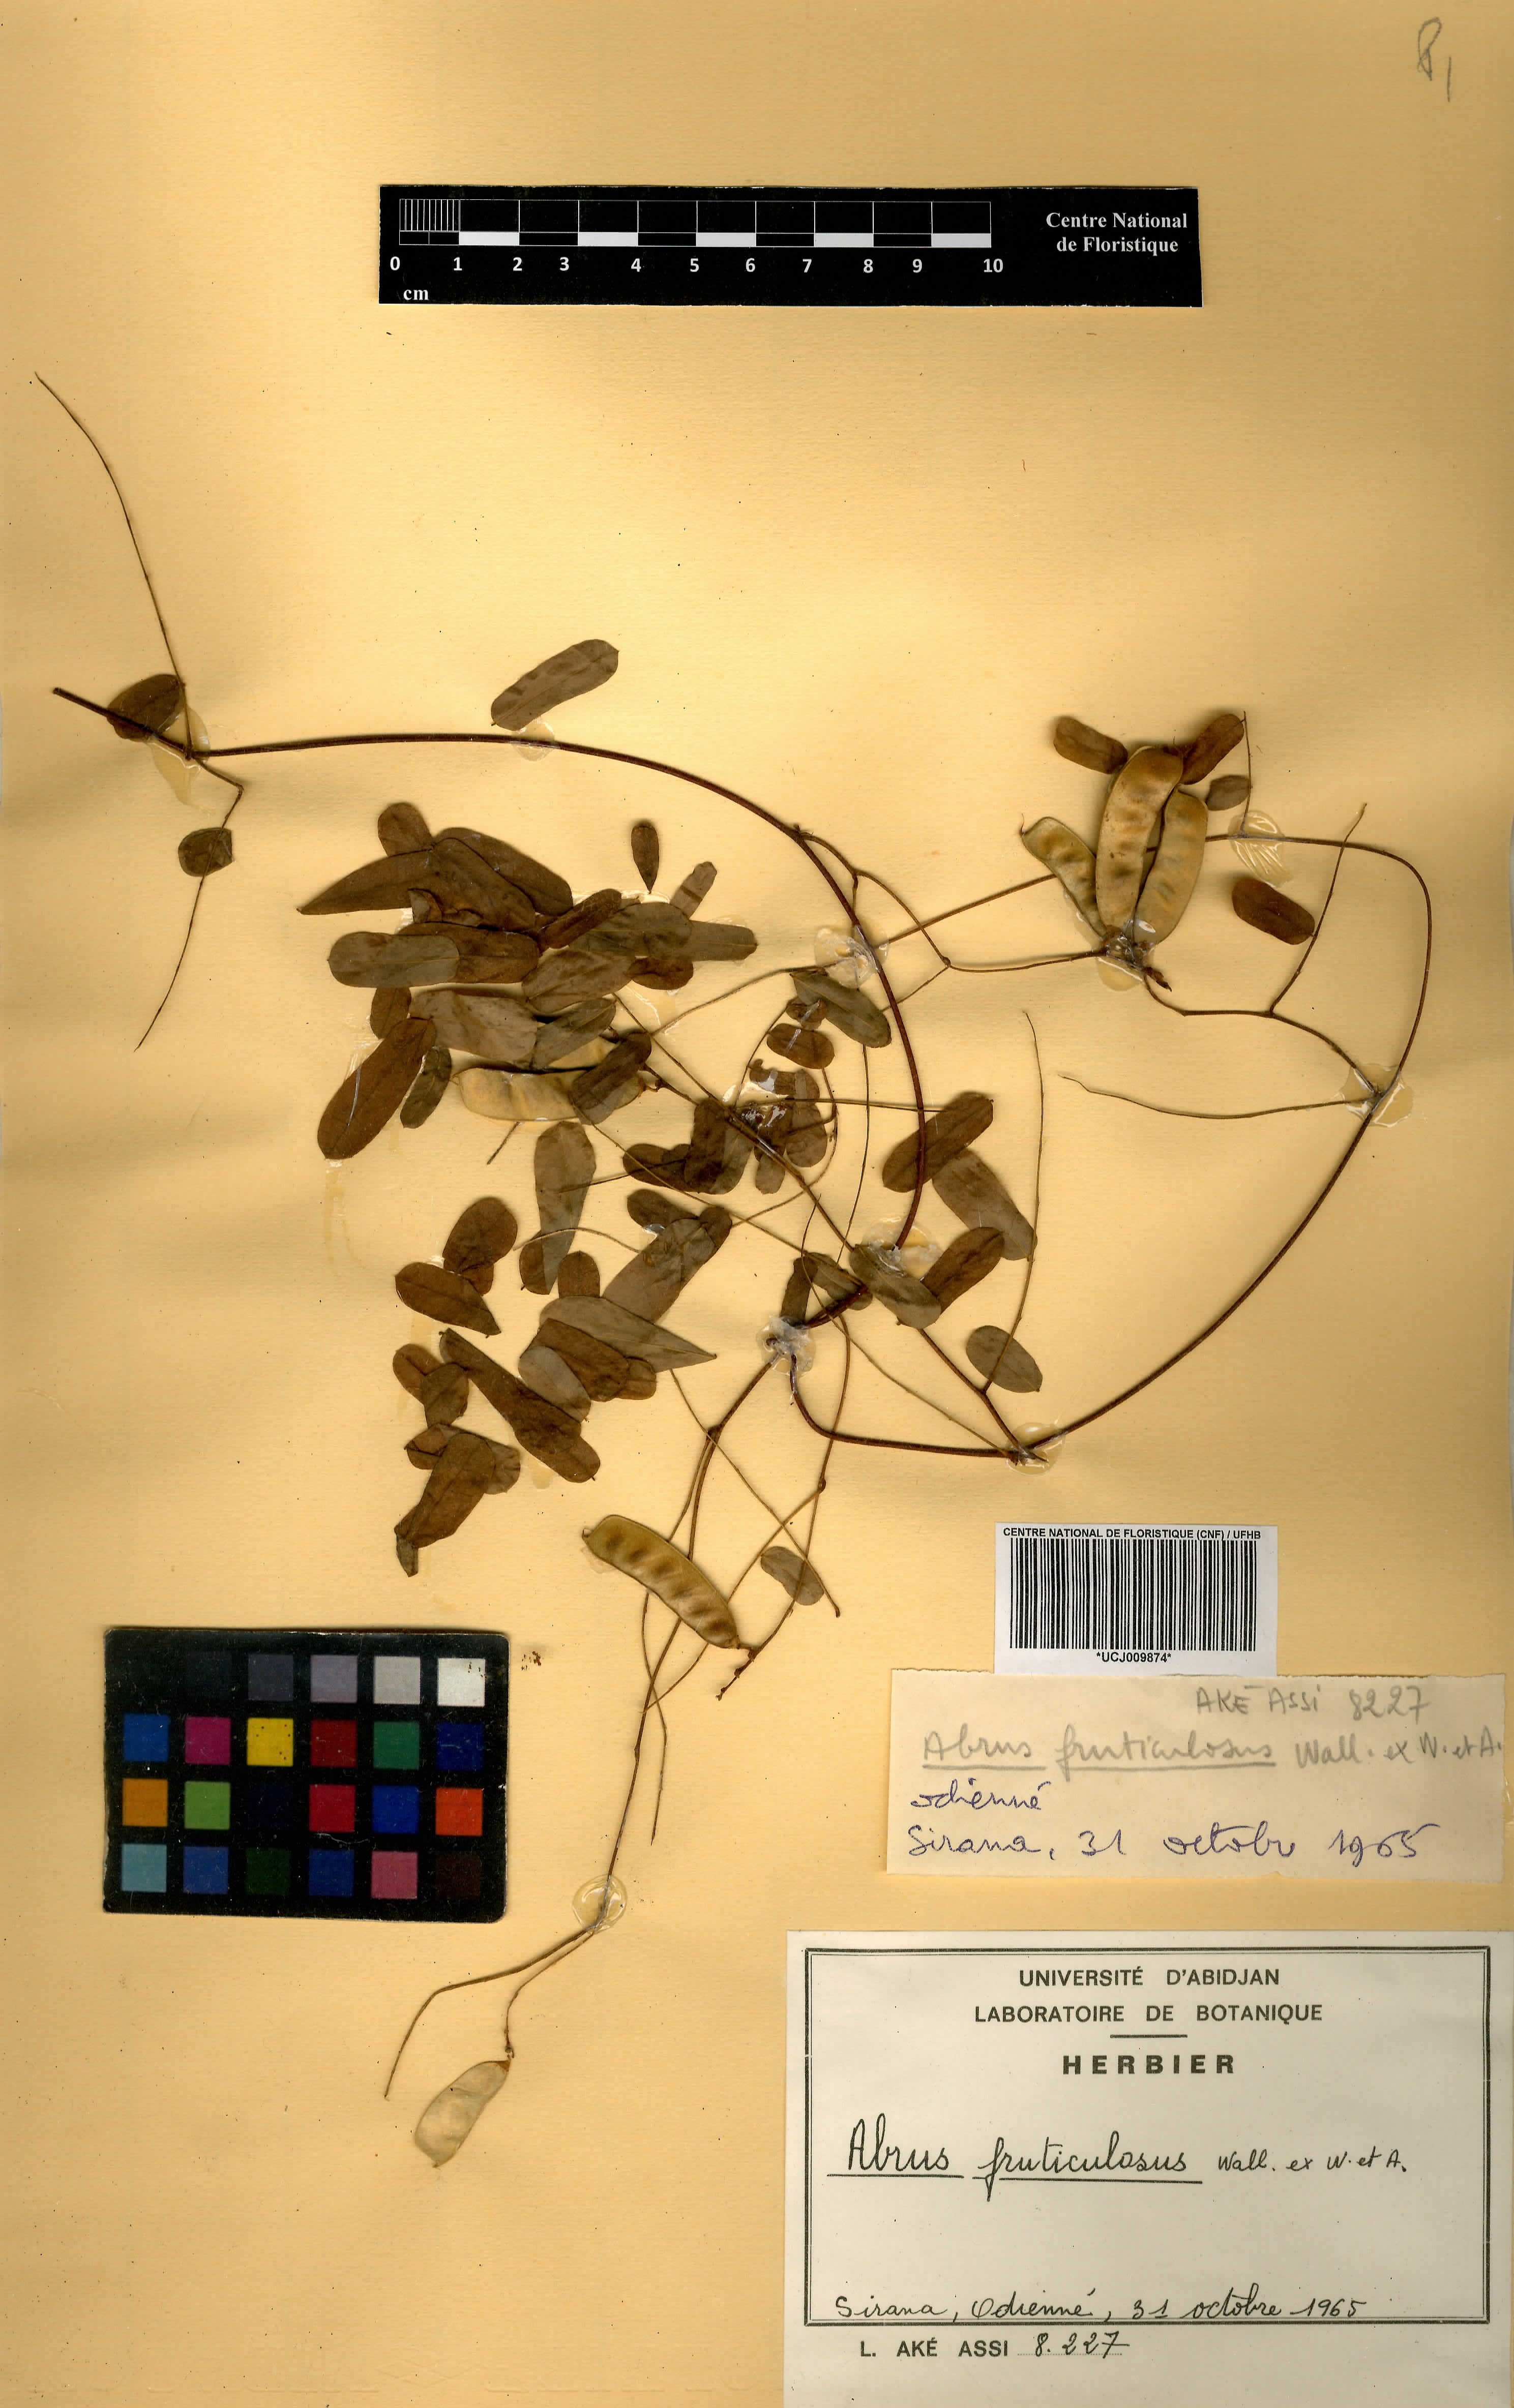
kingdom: Plantae
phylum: Tracheophyta
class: Magnoliopsida
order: Fabales
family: Fabaceae
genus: Abrus
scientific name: Abrus fruticulosus
